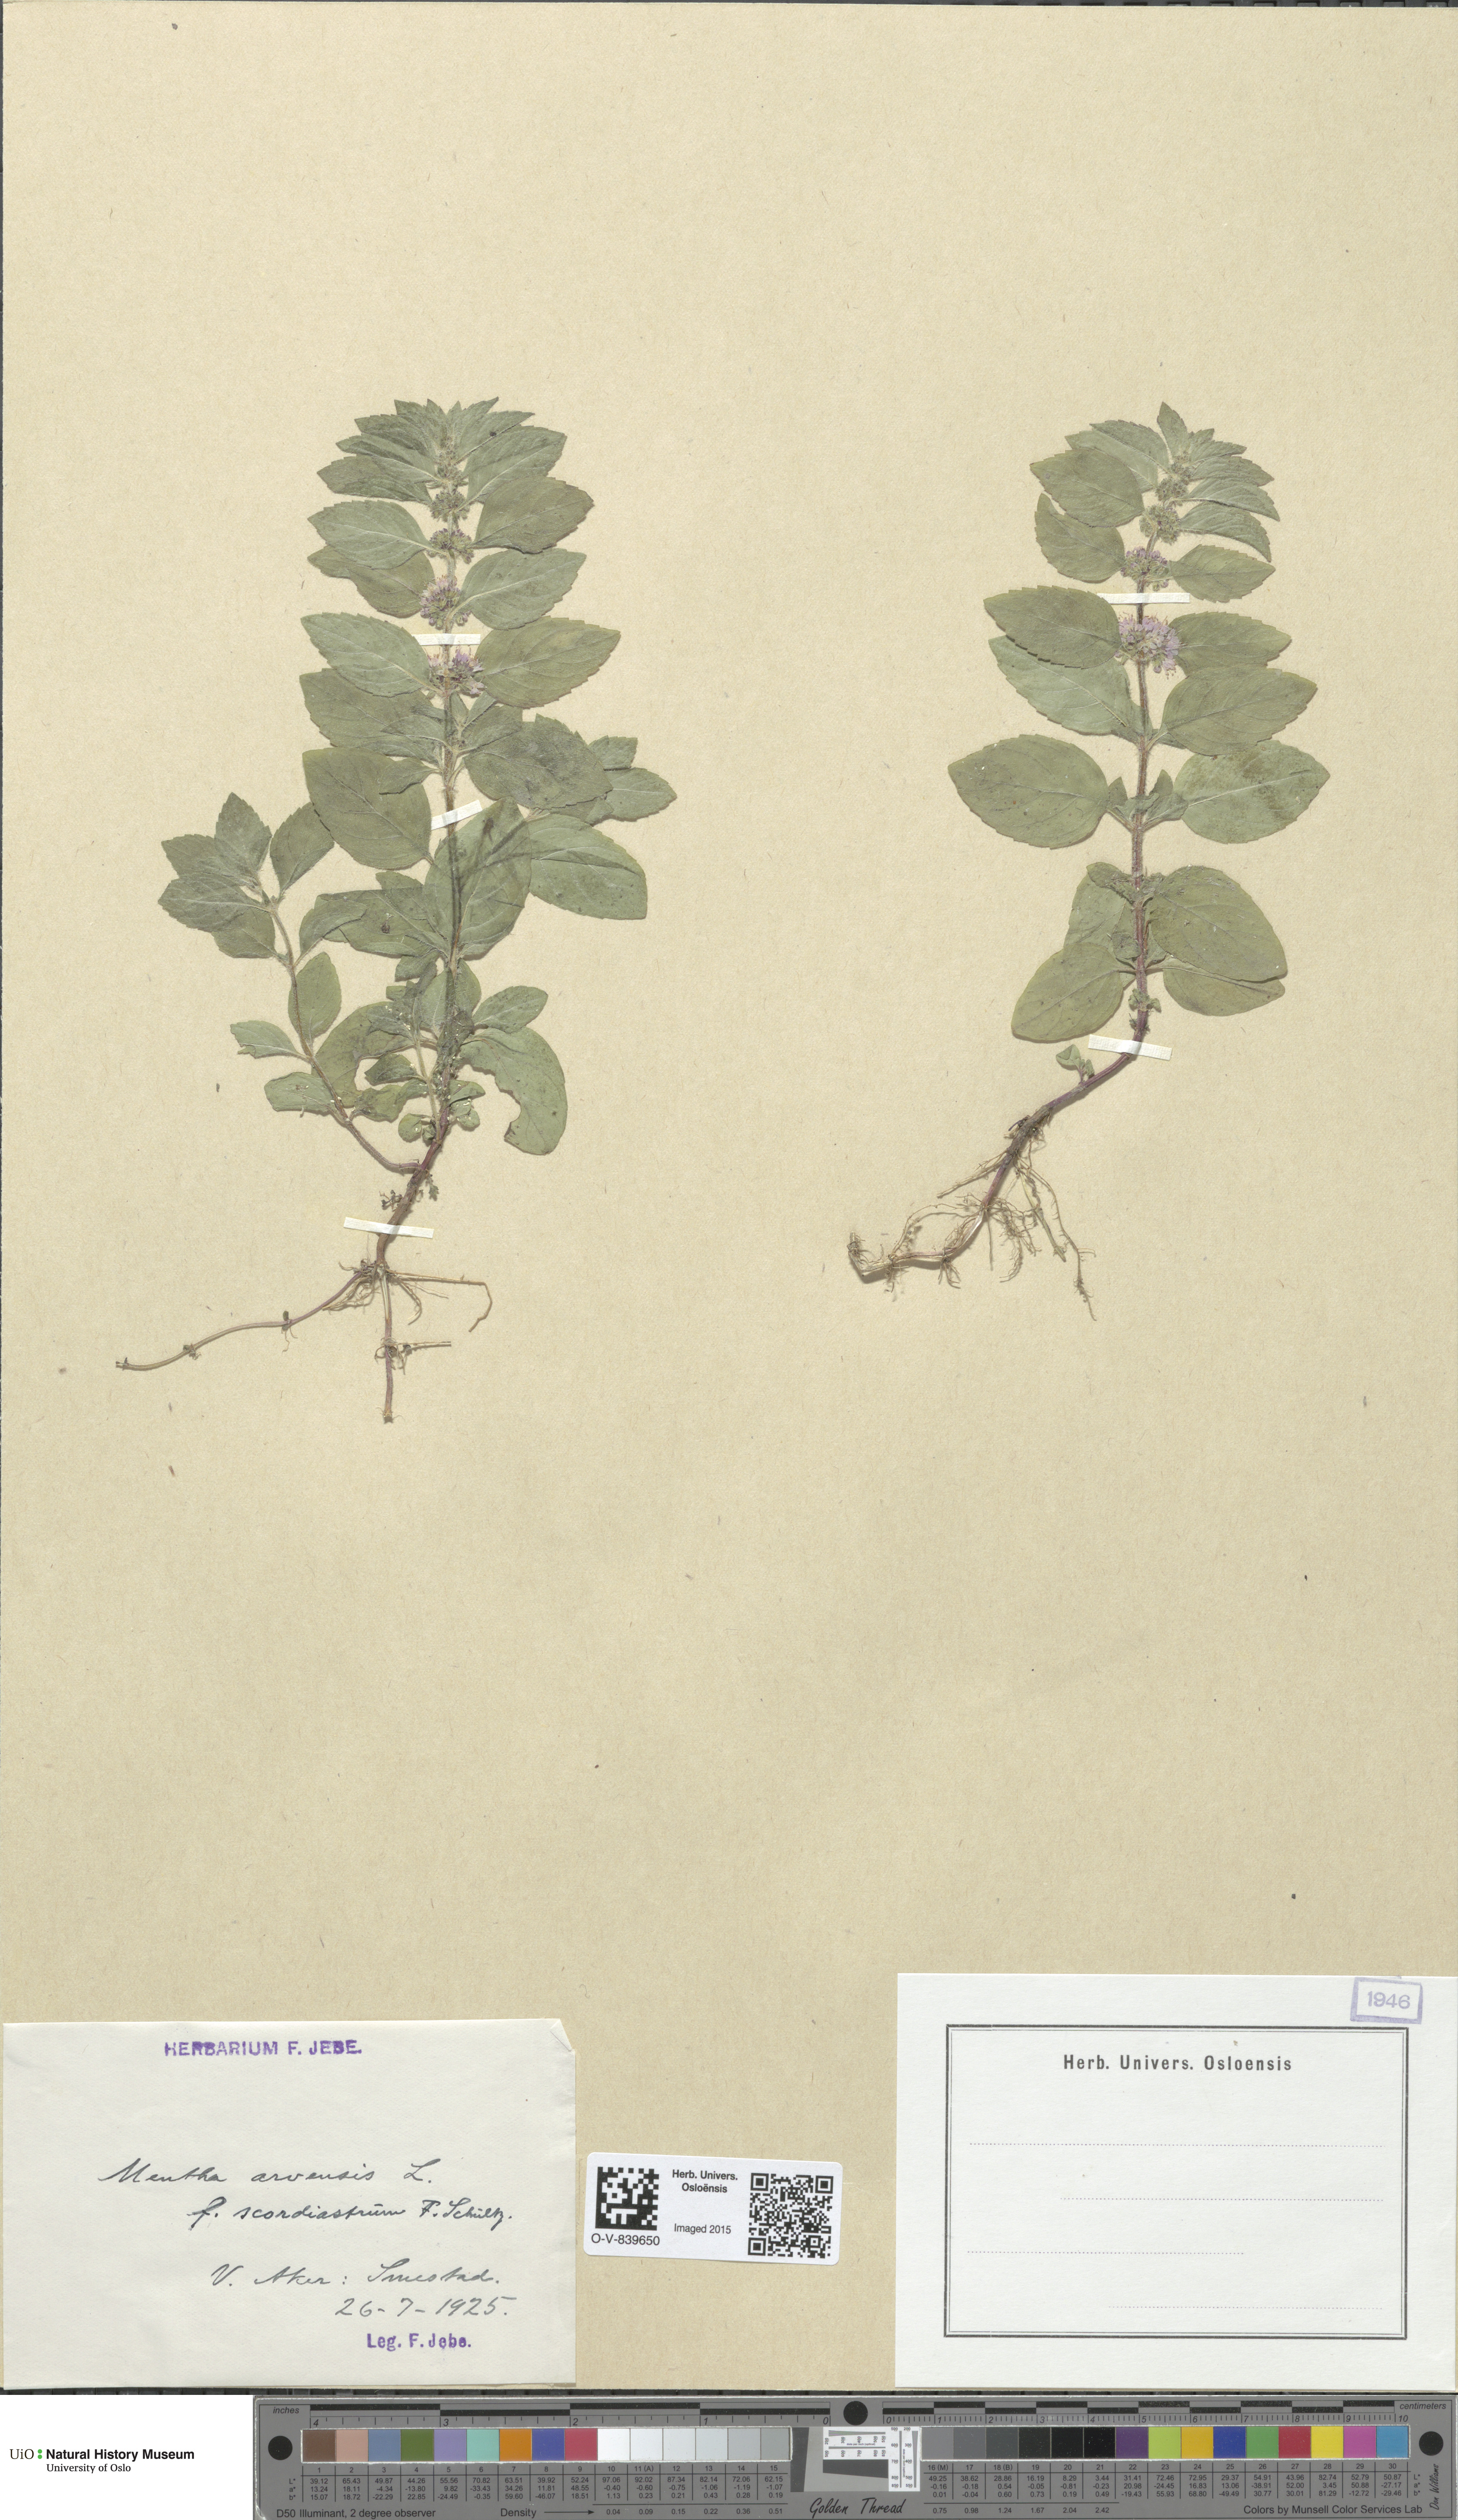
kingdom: Plantae
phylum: Tracheophyta
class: Magnoliopsida
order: Lamiales
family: Lamiaceae
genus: Mentha
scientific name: Mentha arvensis
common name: Corn mint
